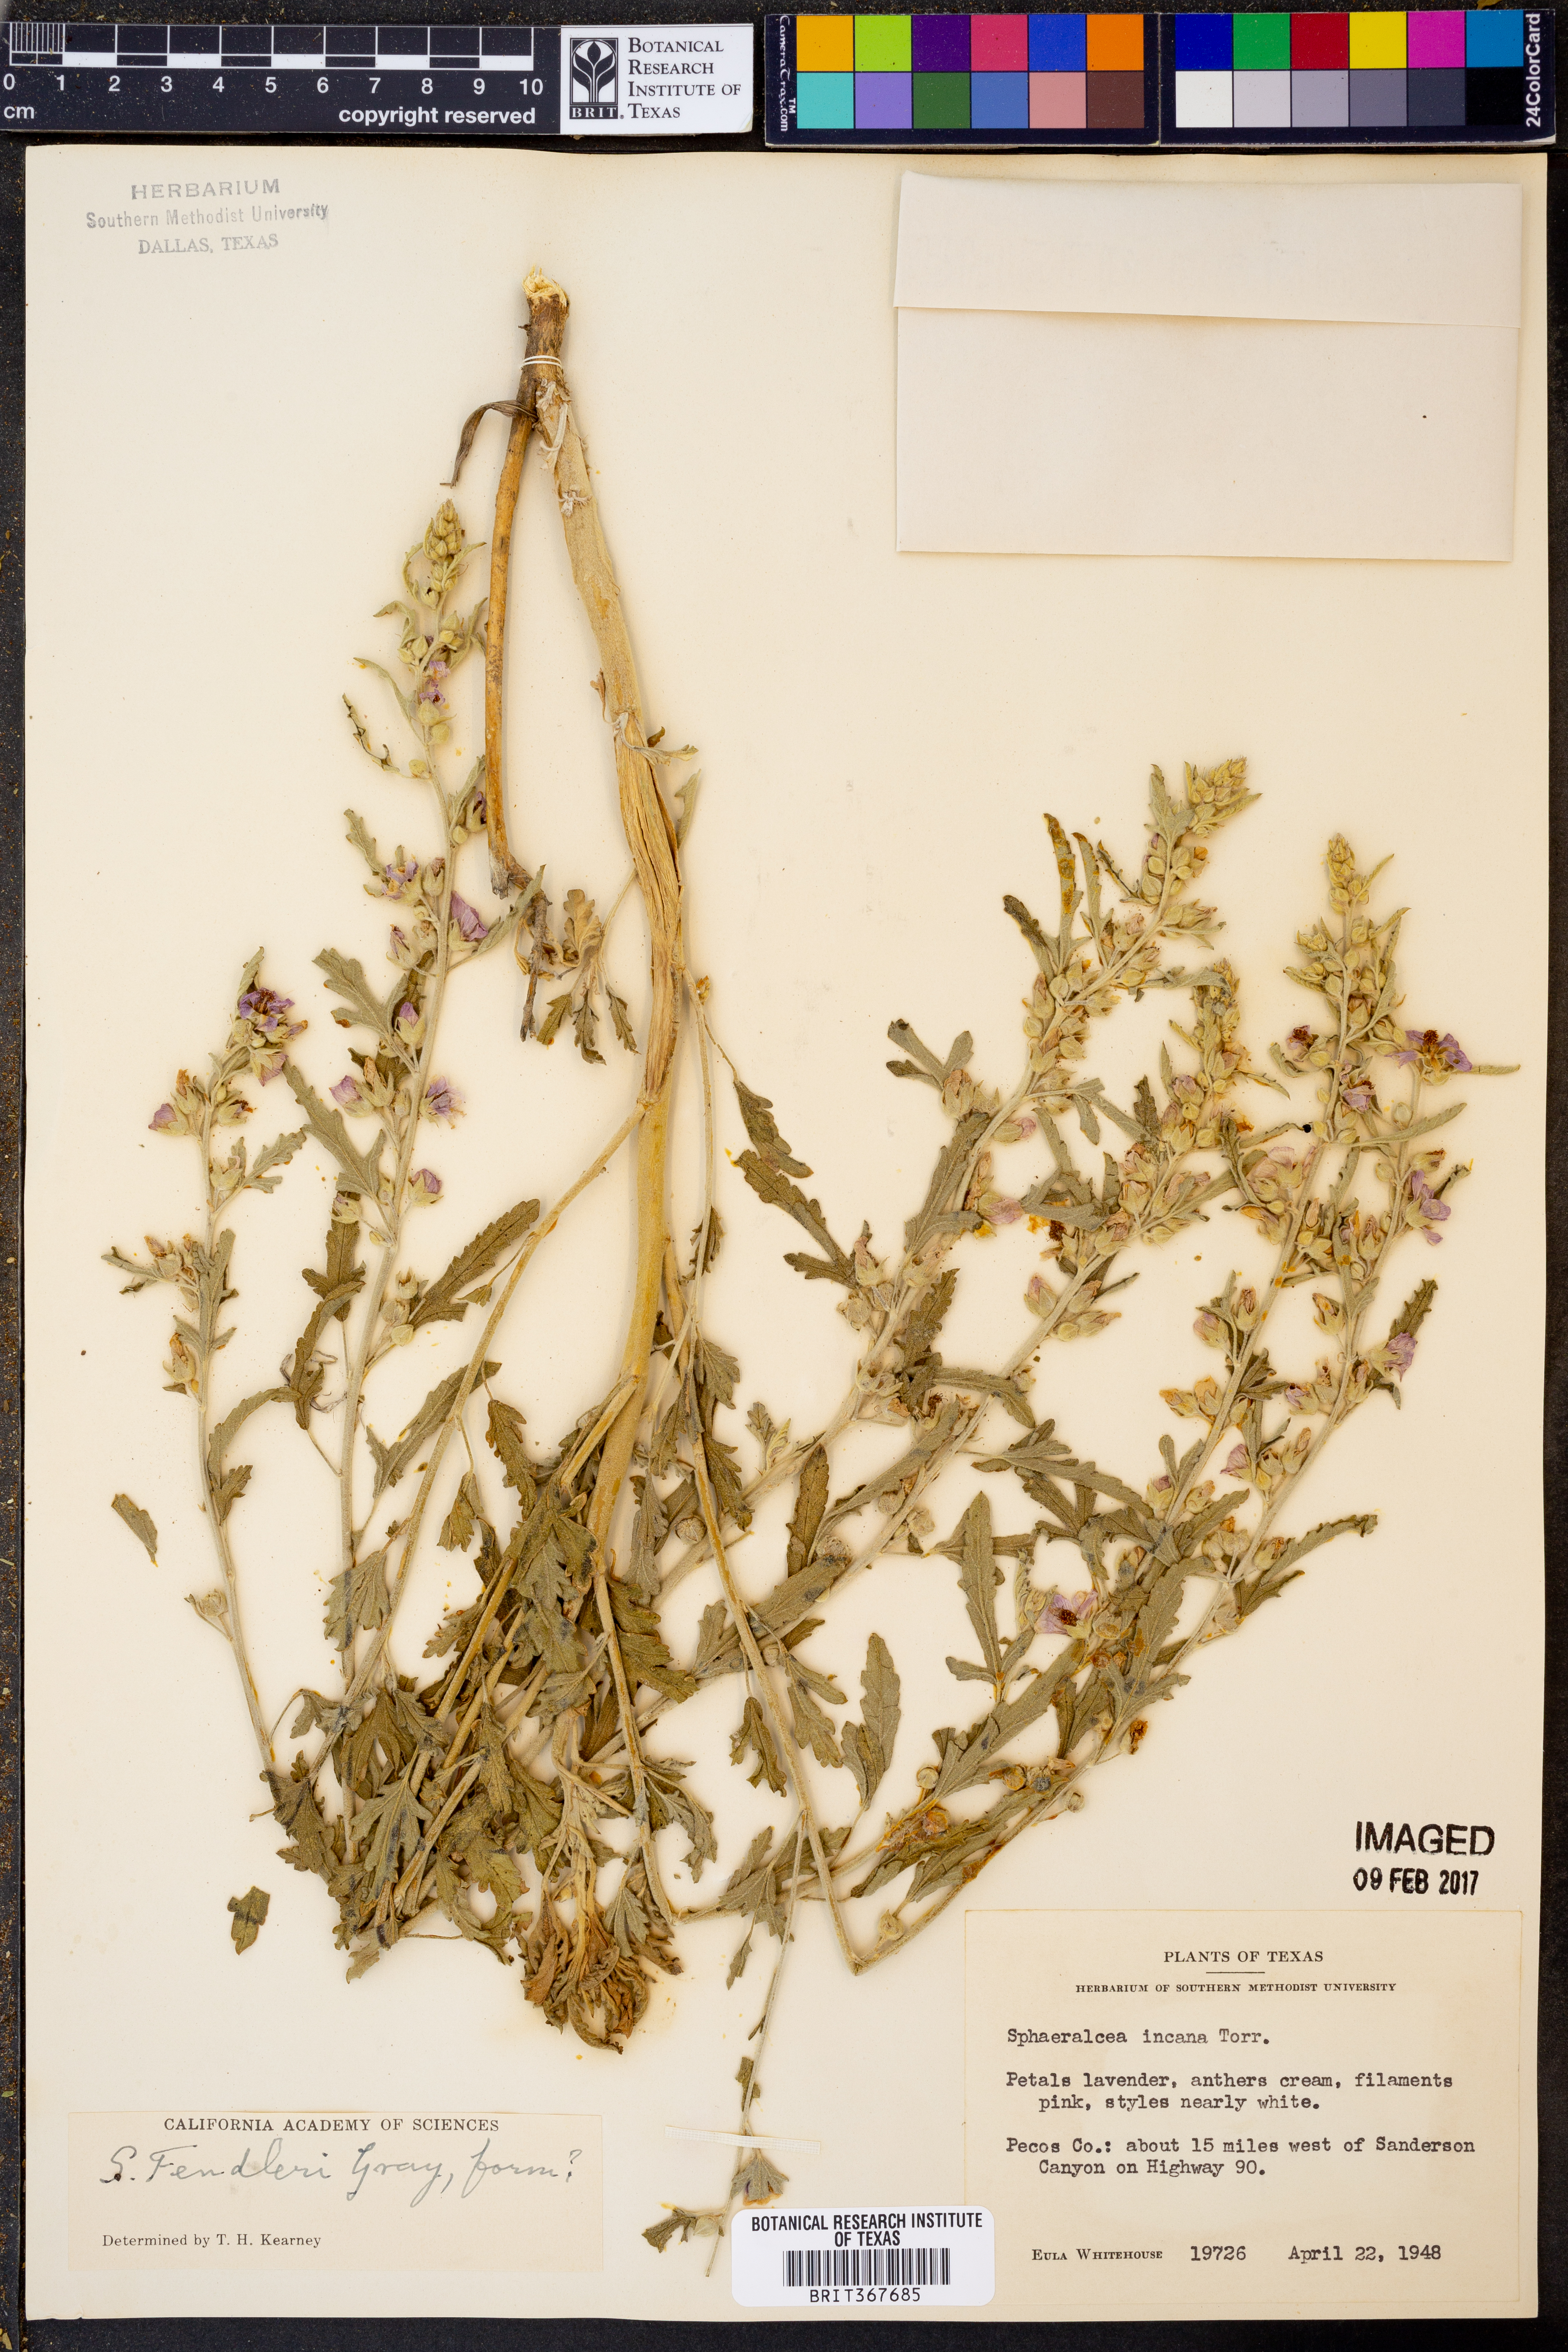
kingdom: Plantae
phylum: Tracheophyta
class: Magnoliopsida
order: Malvales
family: Malvaceae
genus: Sphaeralcea
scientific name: Sphaeralcea fendleri
